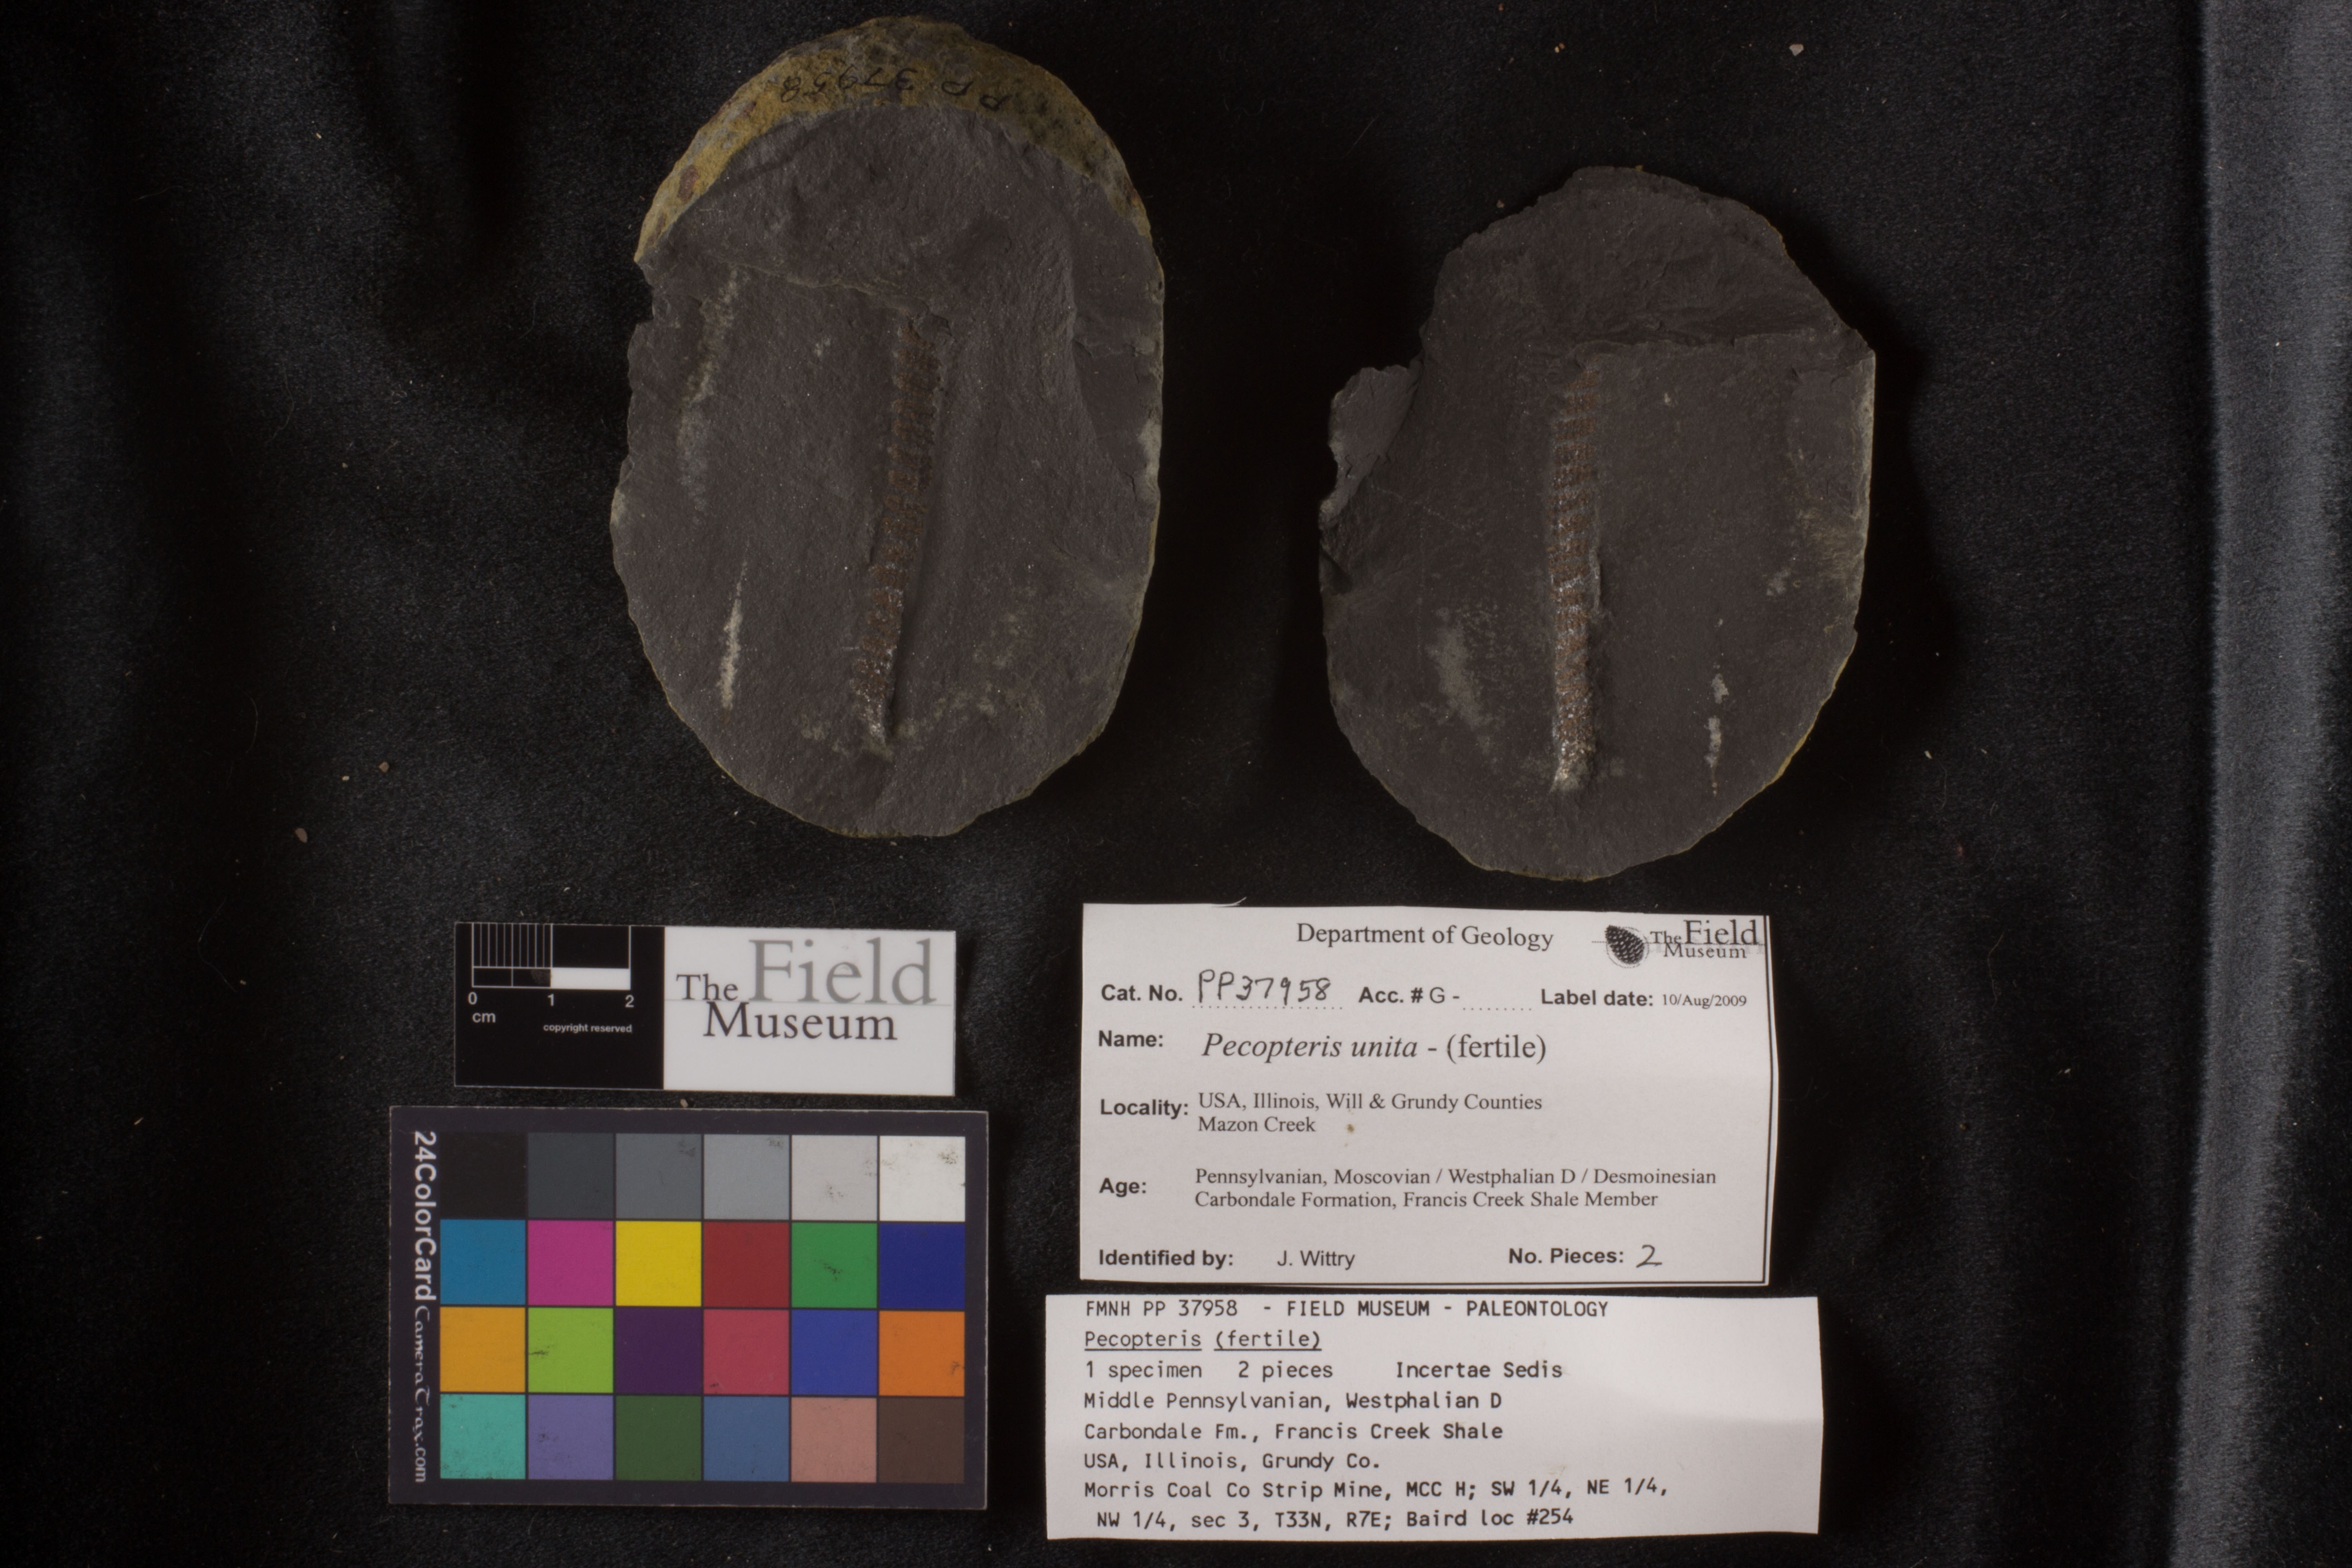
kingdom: Plantae
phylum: Tracheophyta
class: Polypodiopsida
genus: Diplazites
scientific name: Diplazites
